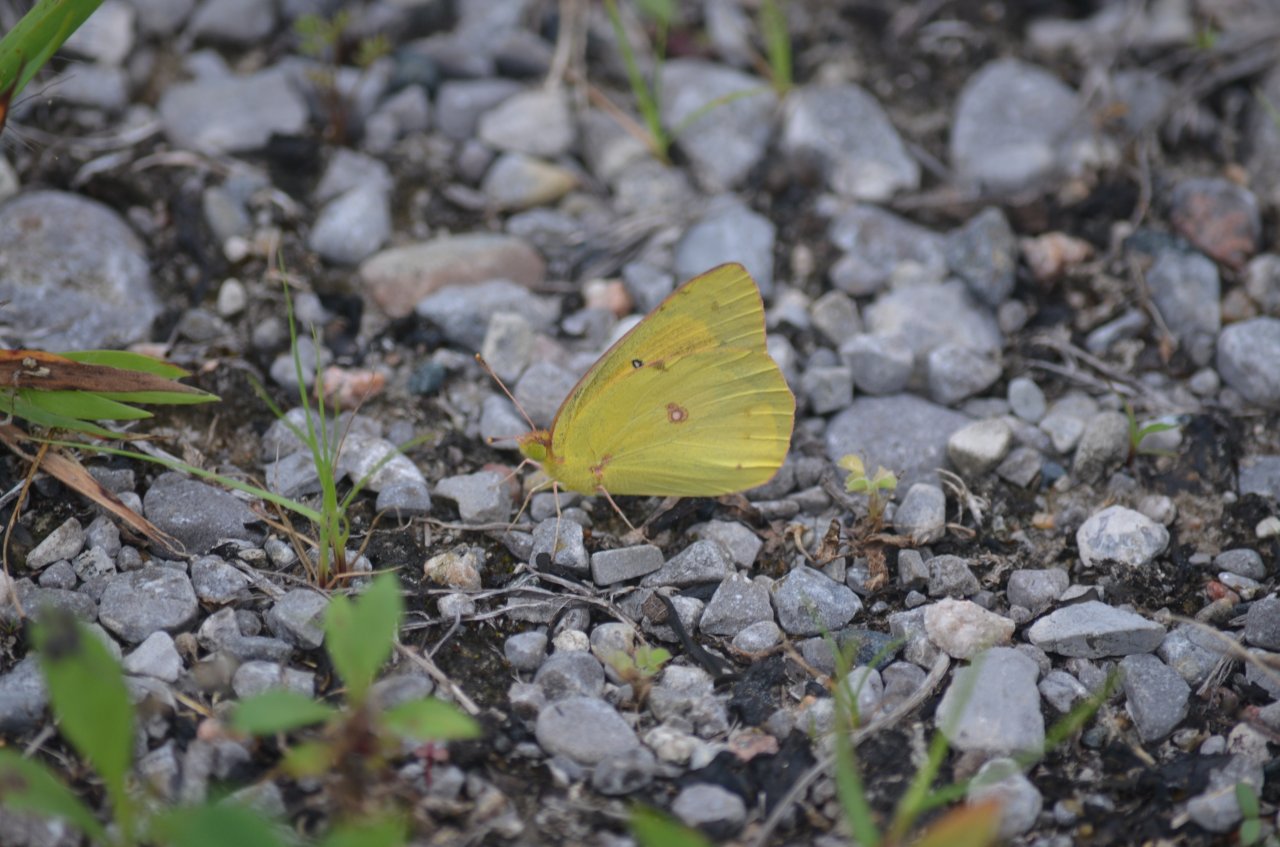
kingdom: Animalia
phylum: Arthropoda
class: Insecta
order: Lepidoptera
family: Pieridae
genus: Colias
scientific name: Colias eurytheme
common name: Orange Sulphur
